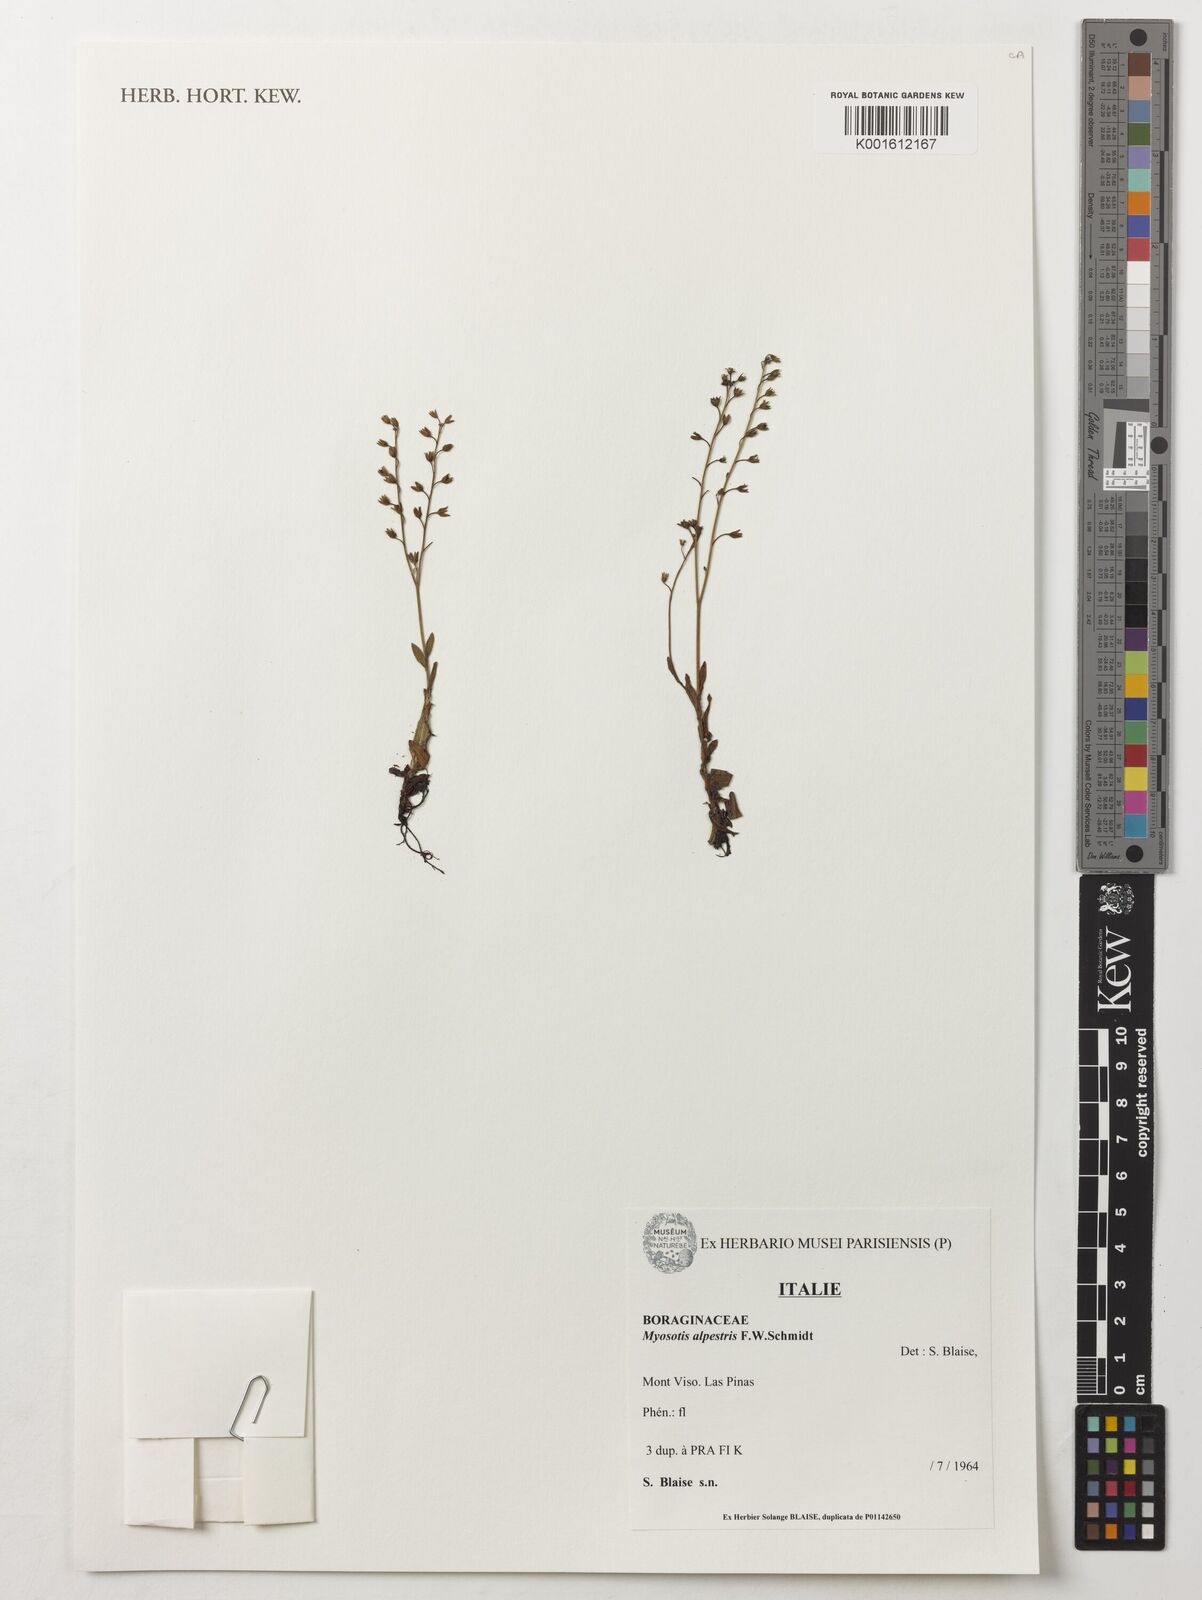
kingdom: Plantae
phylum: Tracheophyta
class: Magnoliopsida
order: Boraginales
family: Boraginaceae
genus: Myosotis
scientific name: Myosotis alpestris
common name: Alpine forget-me-not
